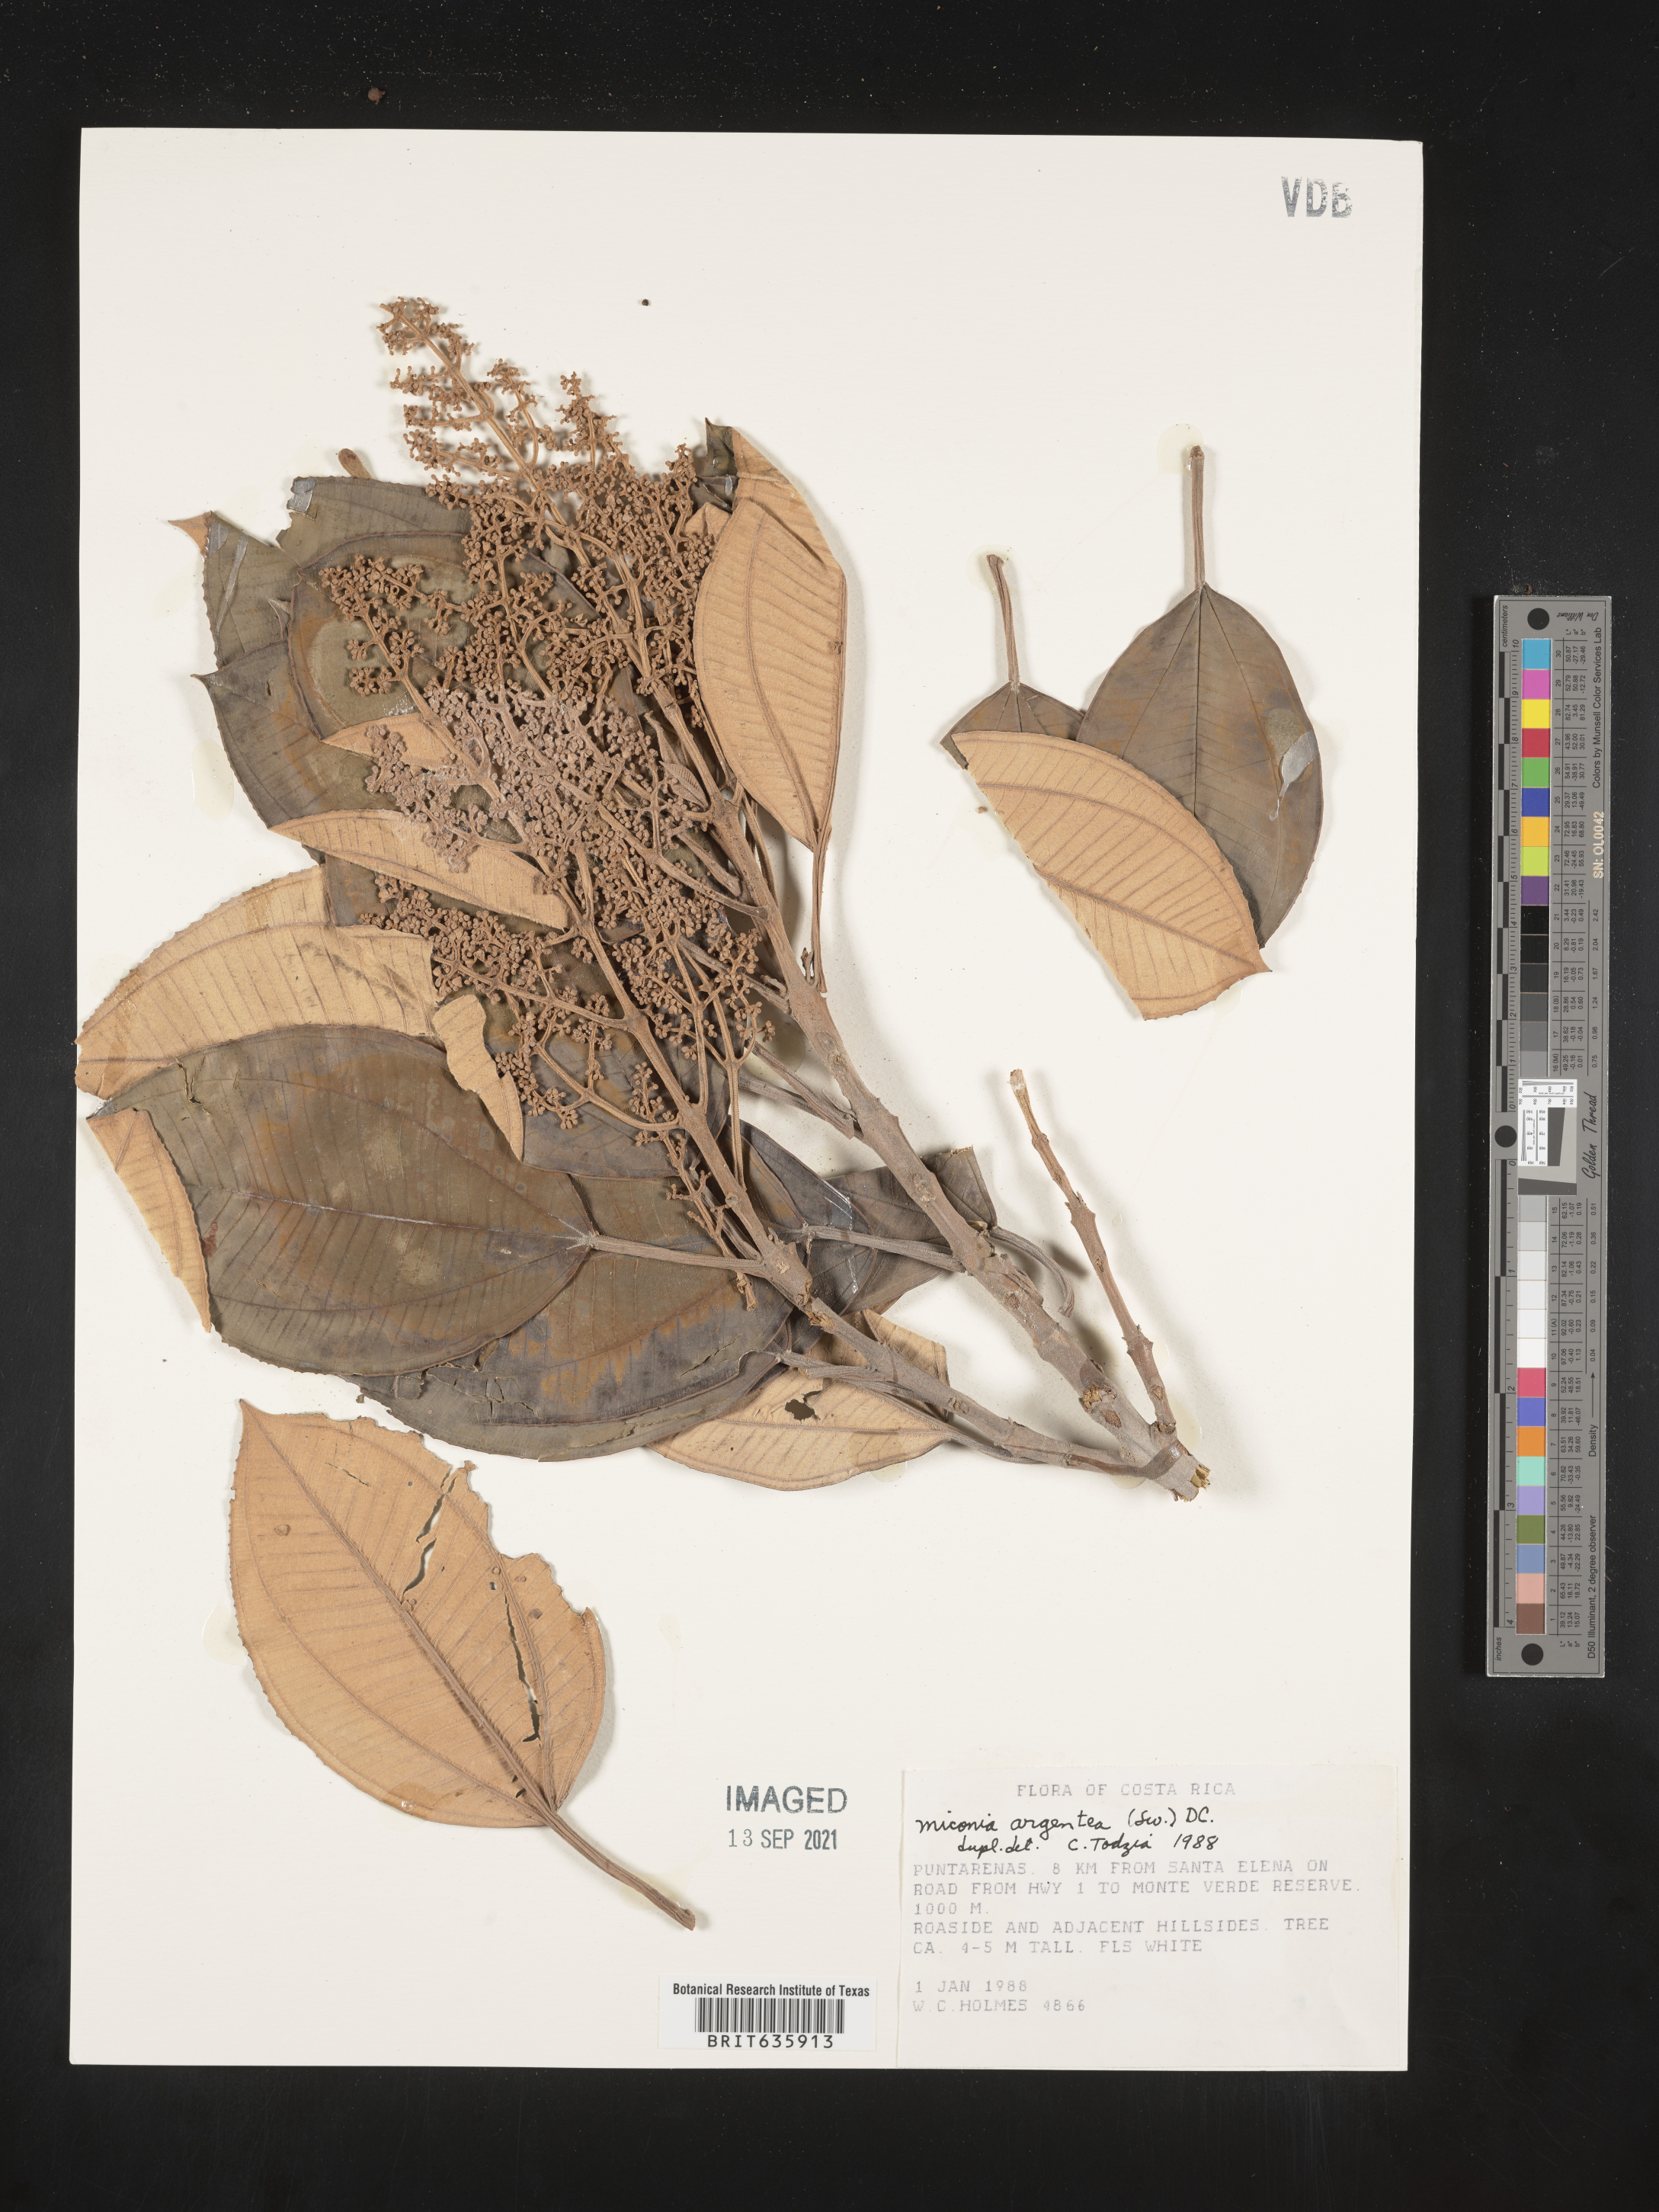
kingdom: Plantae
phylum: Tracheophyta
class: Magnoliopsida
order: Myrtales
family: Melastomataceae
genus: Miconia
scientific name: Miconia
